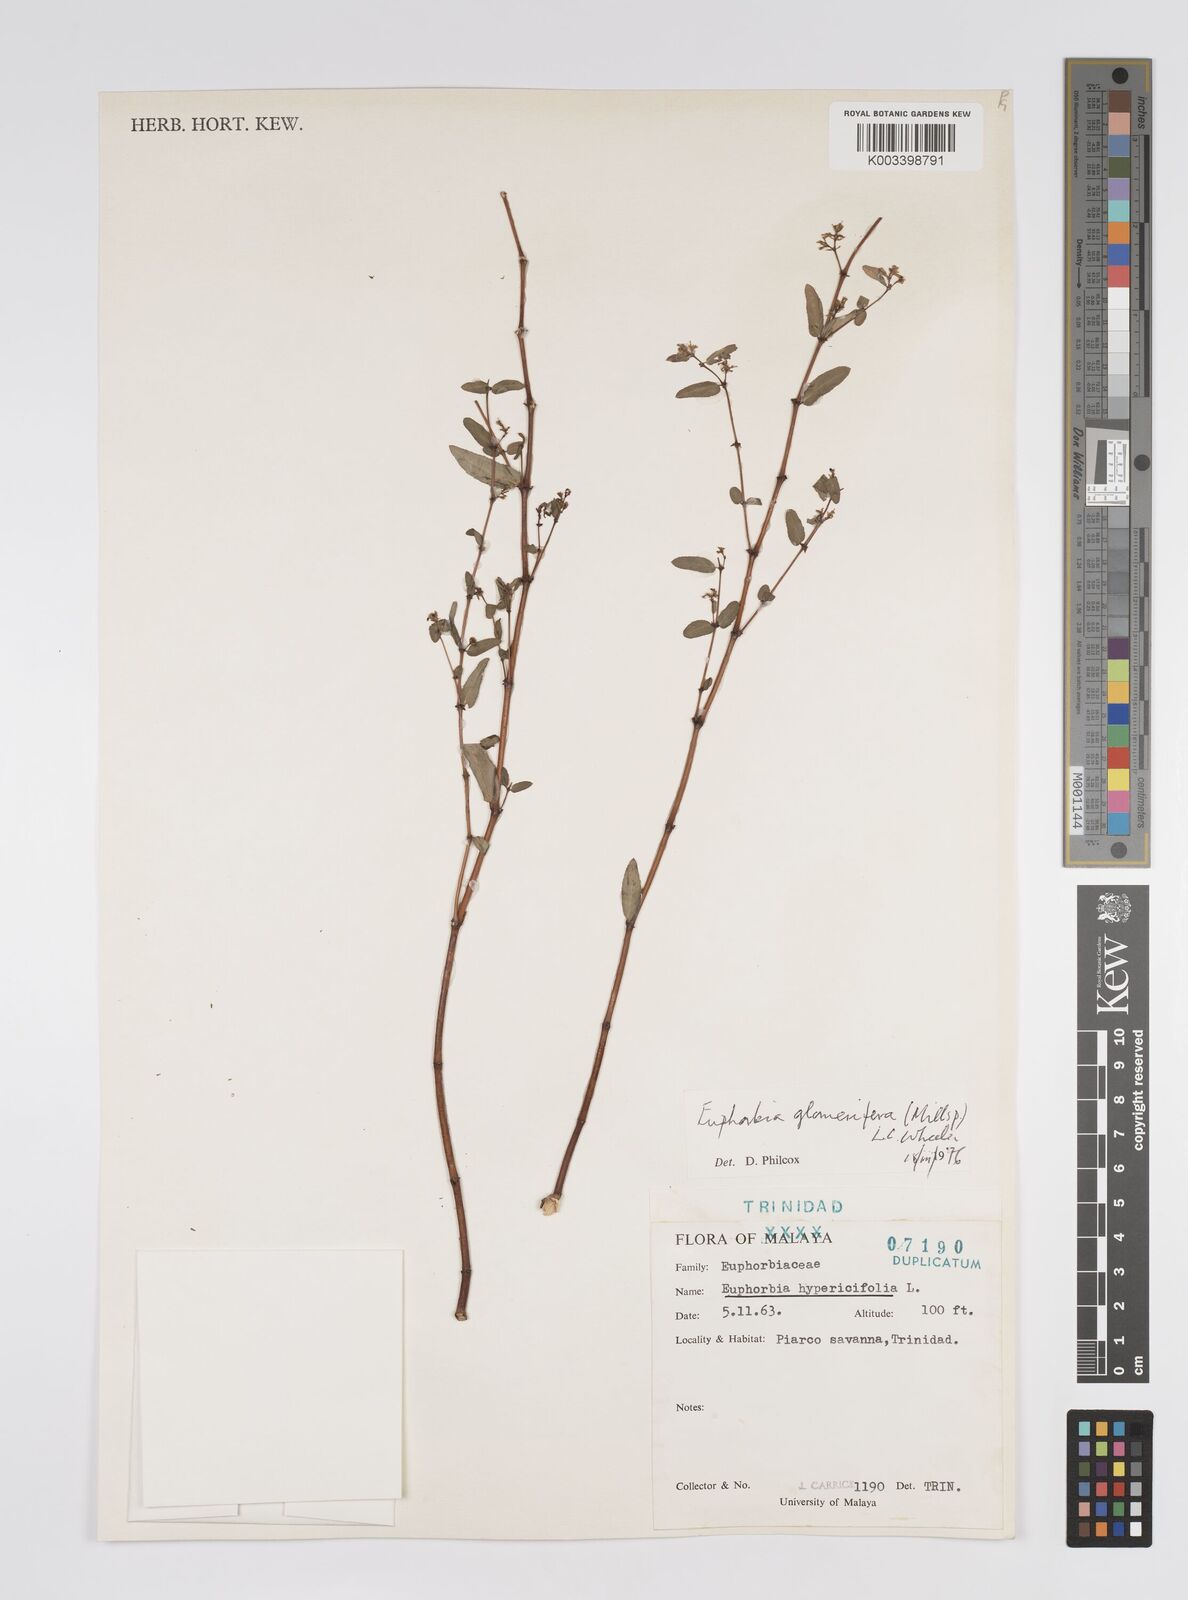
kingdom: Plantae
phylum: Tracheophyta
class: Magnoliopsida
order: Malpighiales
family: Euphorbiaceae
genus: Euphorbia
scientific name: Euphorbia hypericifolia
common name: Graceful sandmat
